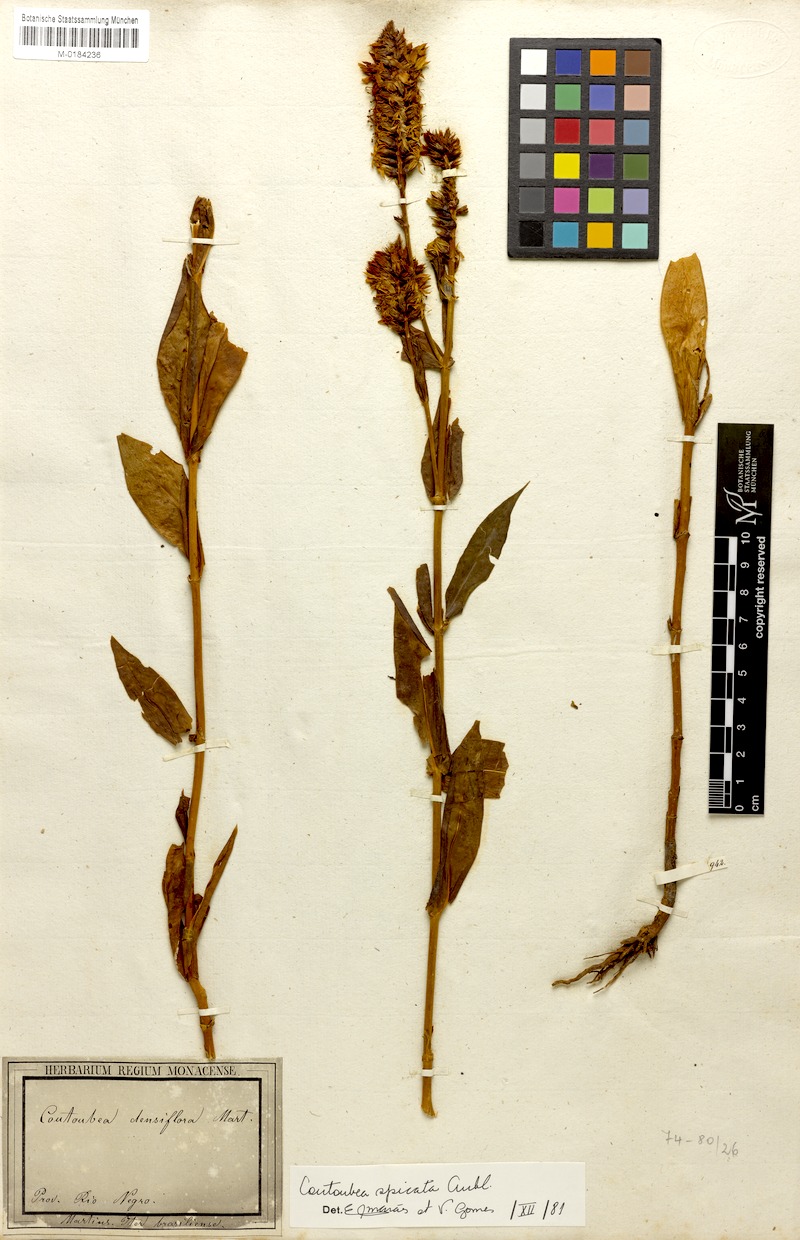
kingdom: Plantae
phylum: Tracheophyta
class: Magnoliopsida
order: Gentianales
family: Gentianaceae
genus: Coutoubea
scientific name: Coutoubea spicata
